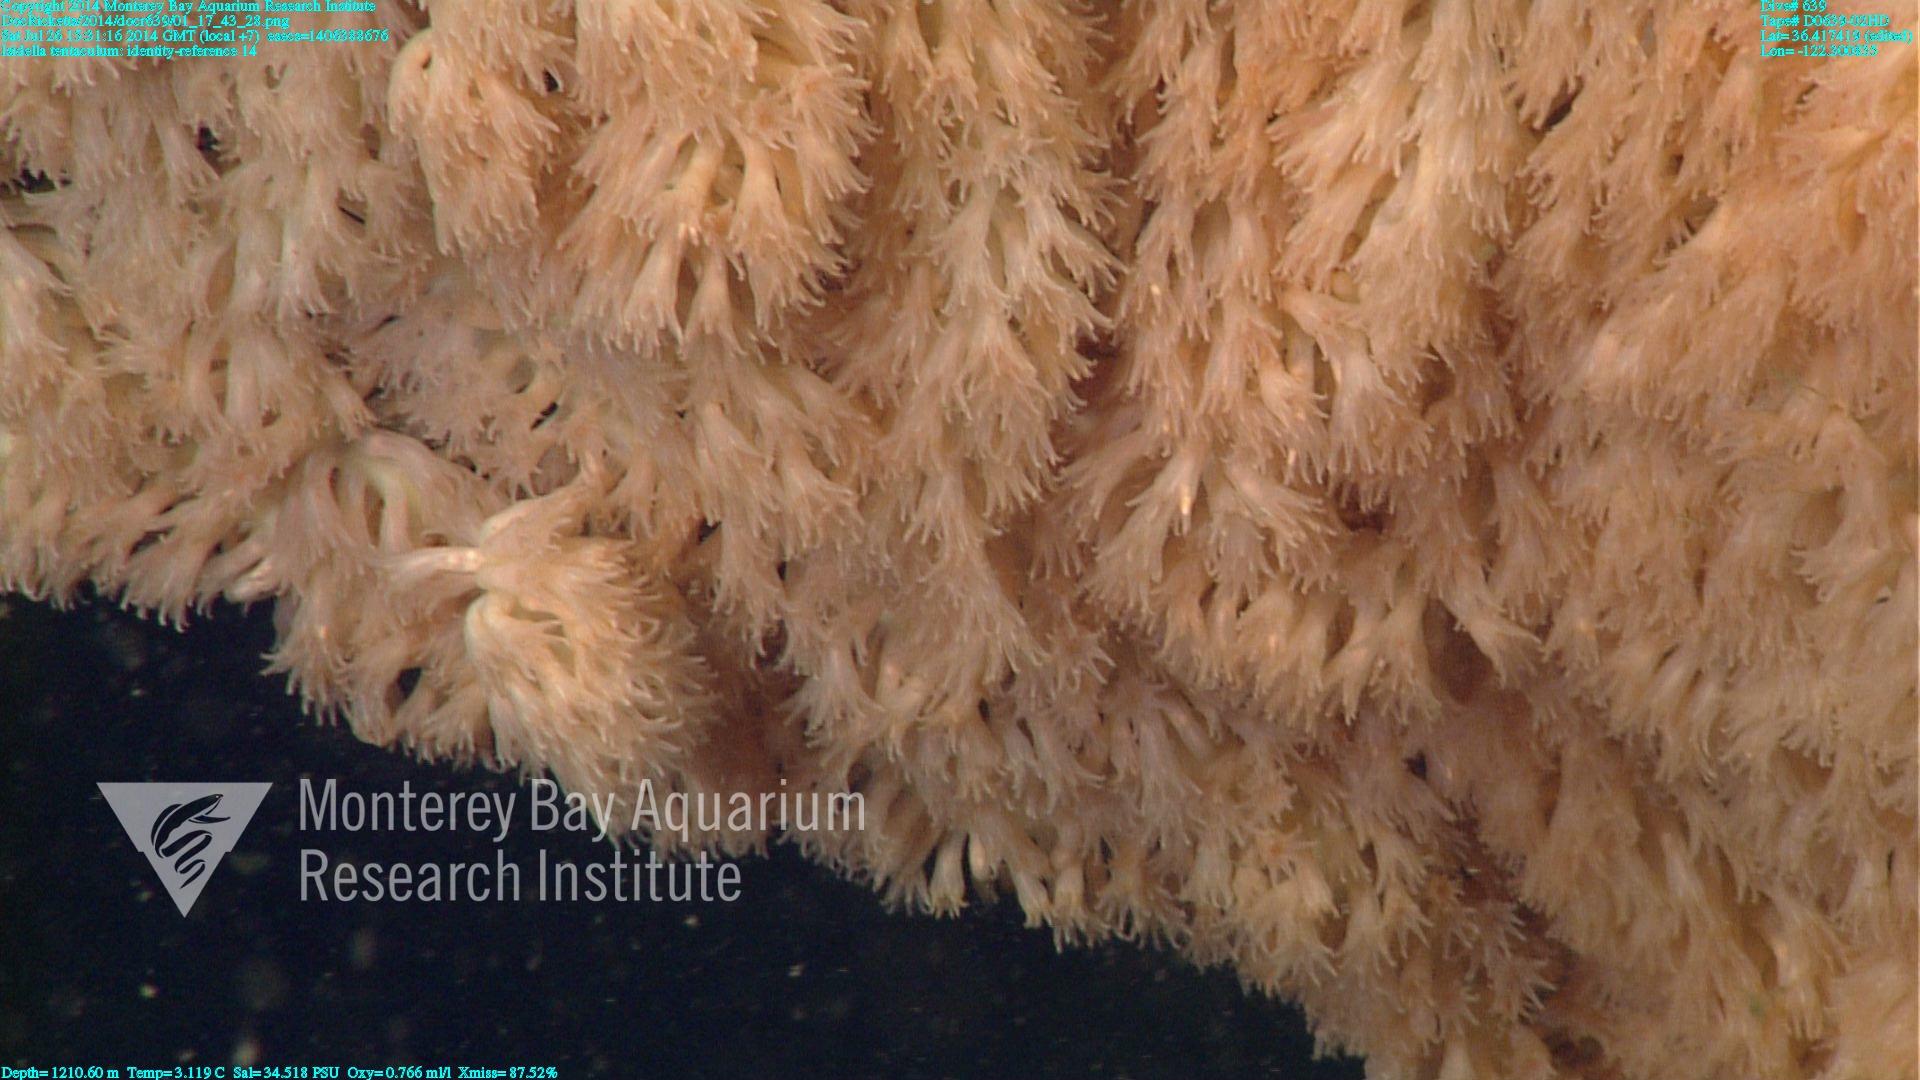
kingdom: Animalia
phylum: Cnidaria
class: Anthozoa
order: Scleralcyonacea
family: Keratoisididae
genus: Isidella
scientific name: Isidella tentaculum
